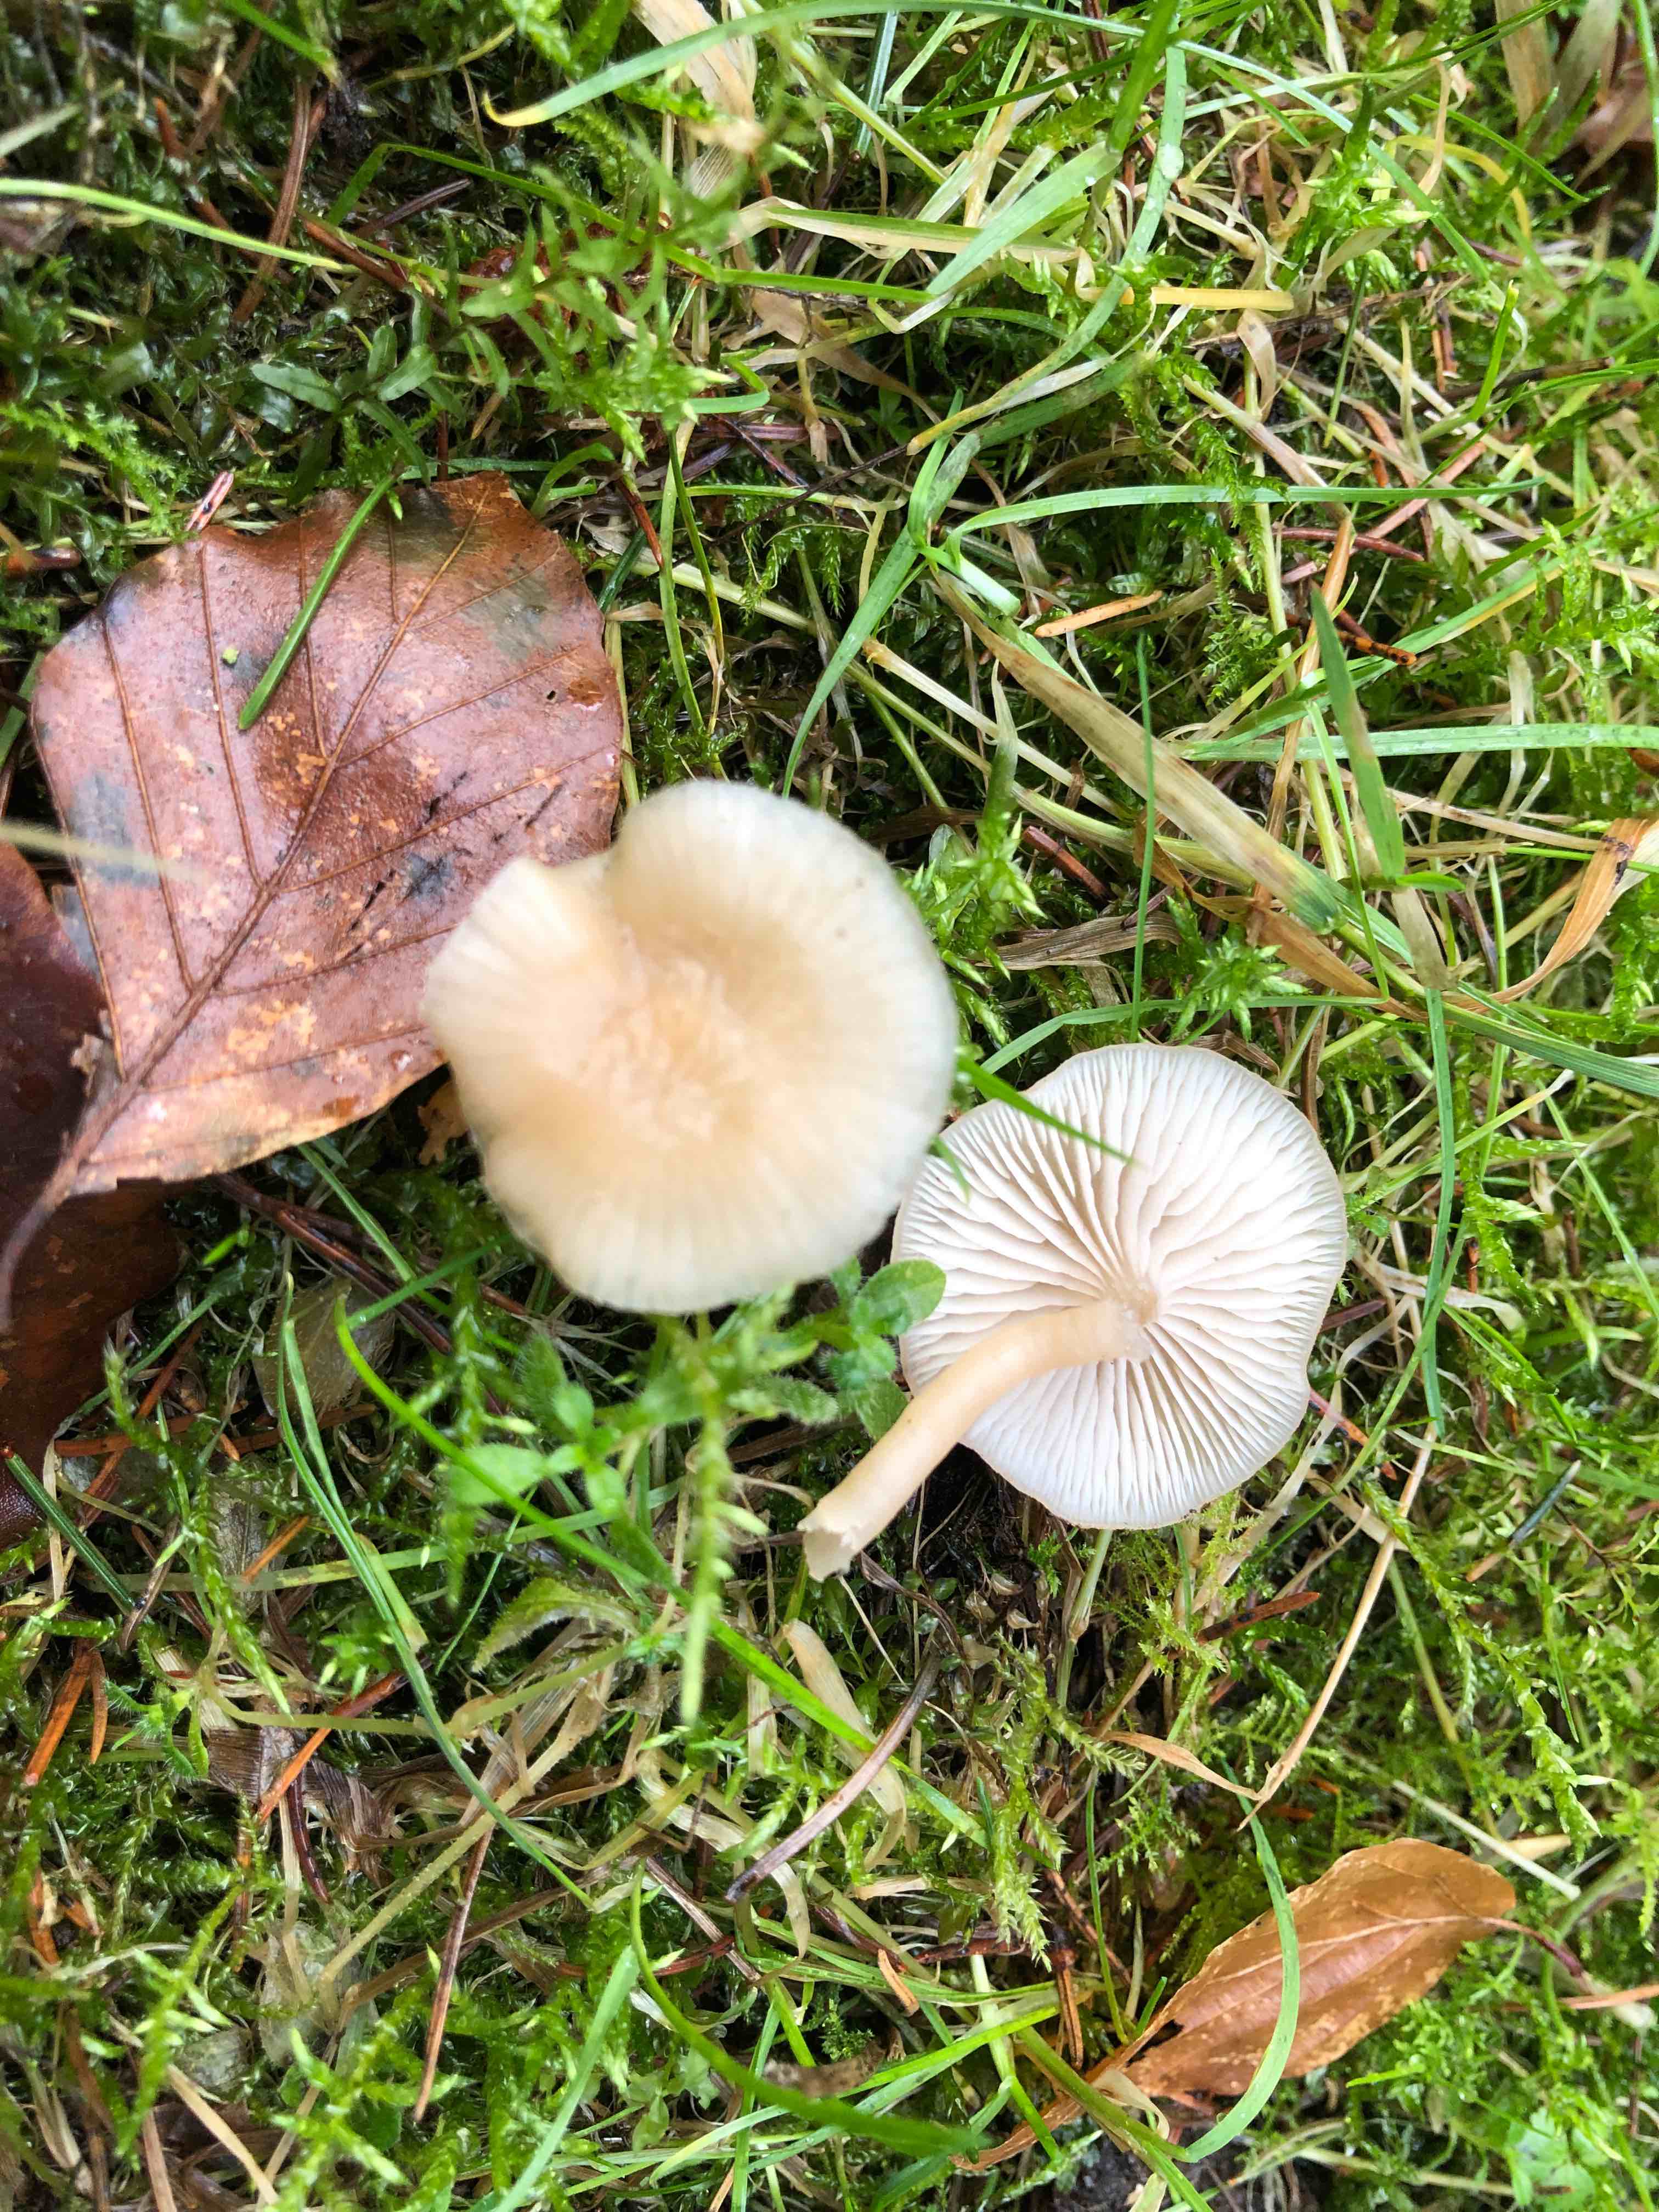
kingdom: Fungi
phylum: Basidiomycota
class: Agaricomycetes
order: Agaricales
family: Tricholomataceae
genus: Clitocybe
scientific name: Clitocybe fragrans
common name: vellugtende tragthat
